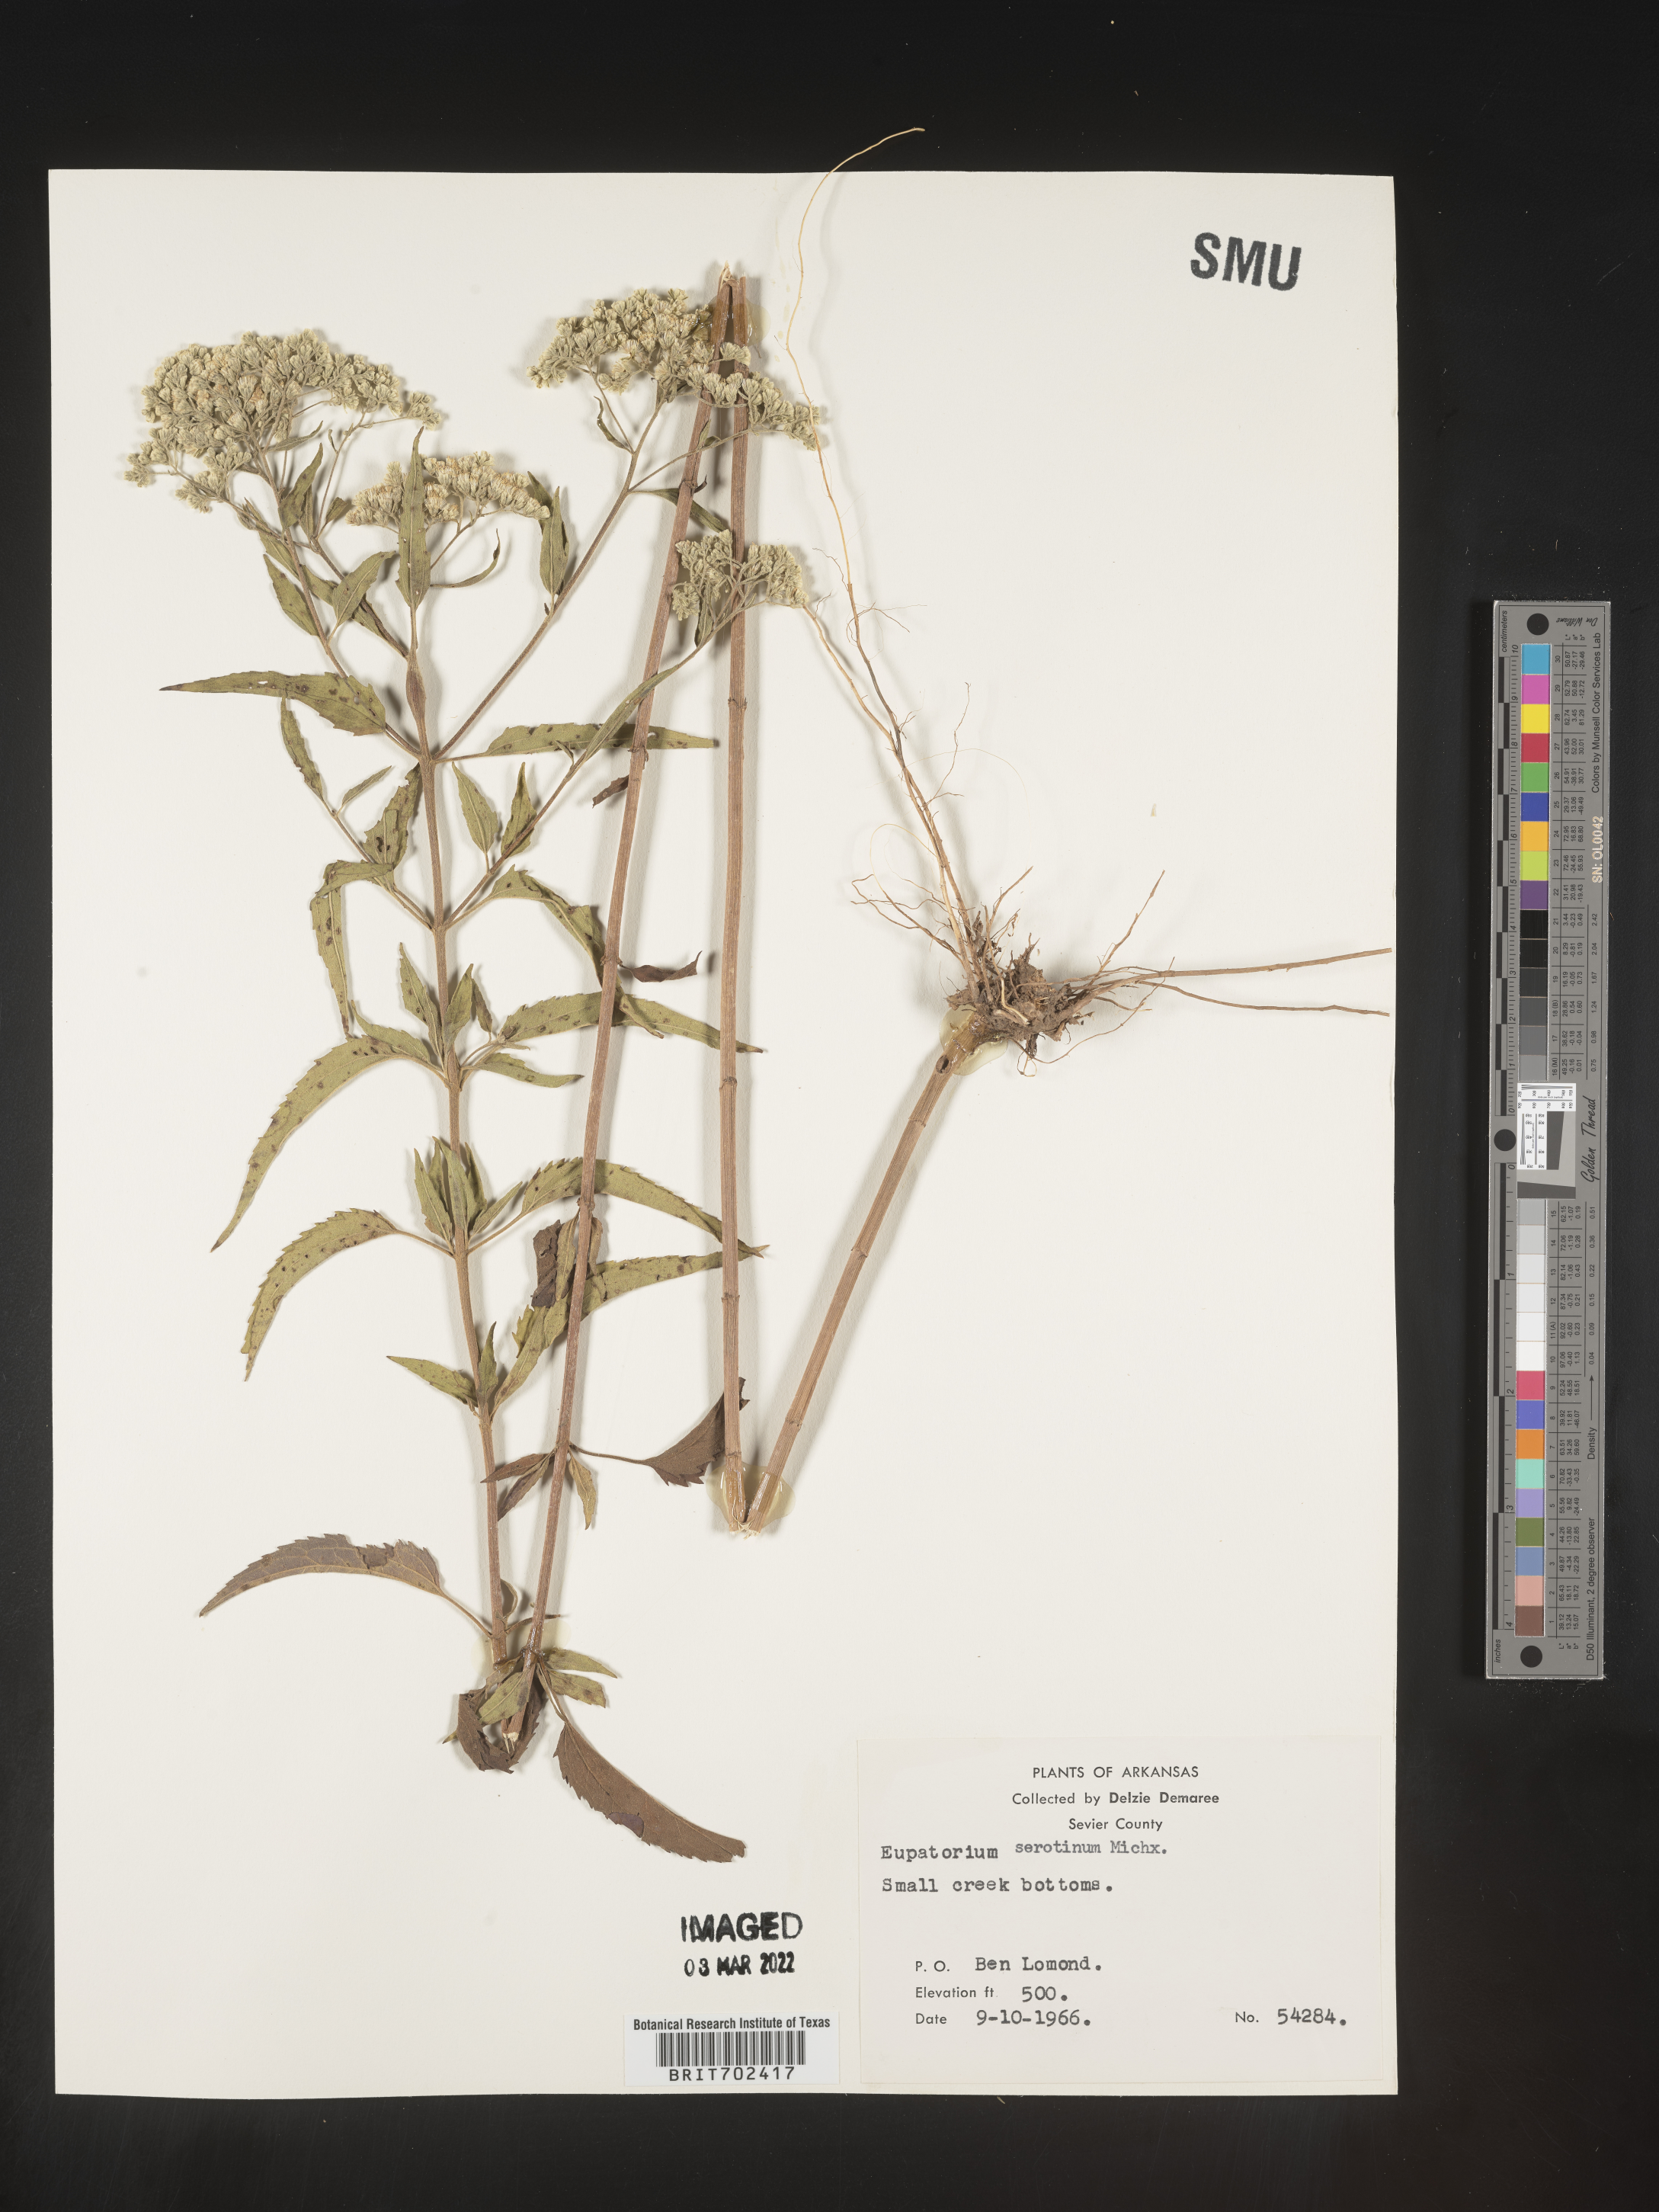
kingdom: Plantae
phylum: Tracheophyta
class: Magnoliopsida
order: Asterales
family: Asteraceae
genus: Eupatorium
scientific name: Eupatorium serotinum
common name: Late boneset
